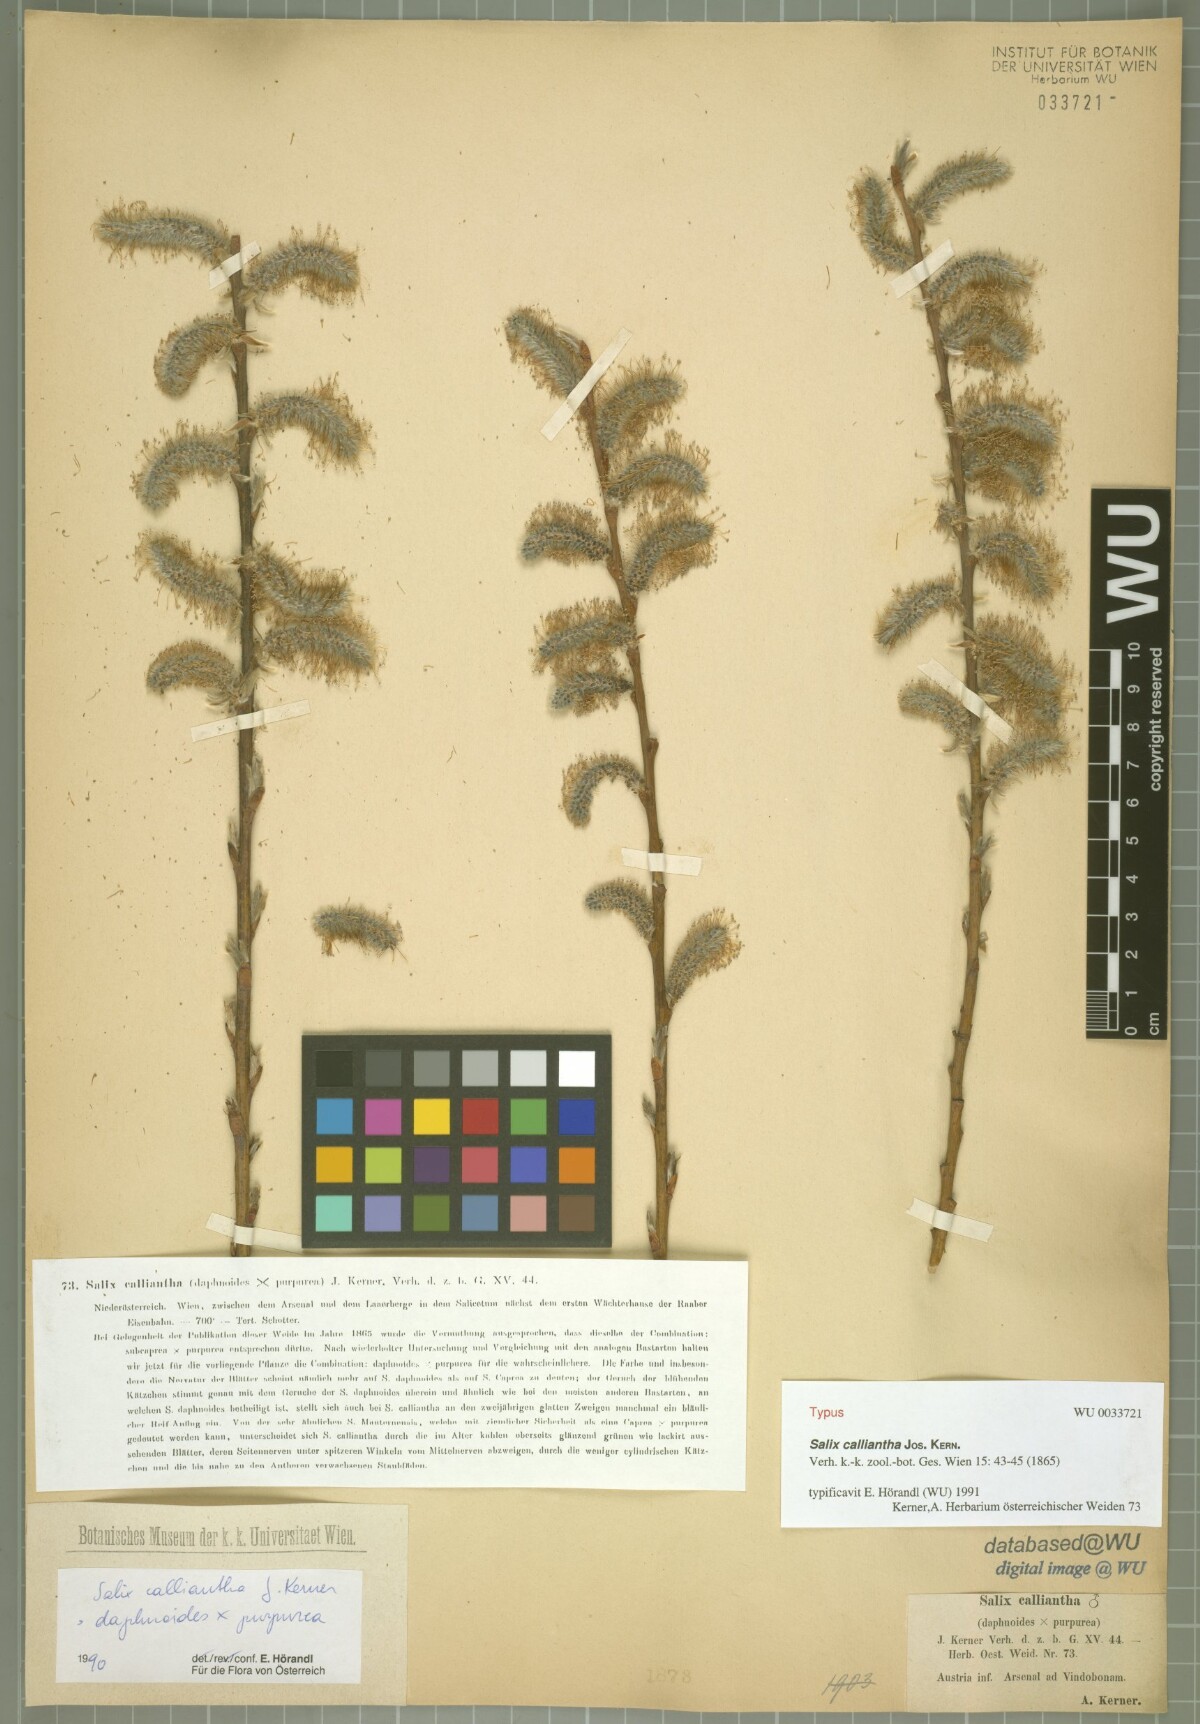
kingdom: Plantae
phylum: Tracheophyta
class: Magnoliopsida
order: Malpighiales
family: Salicaceae
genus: Salix
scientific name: Salix calliantha
